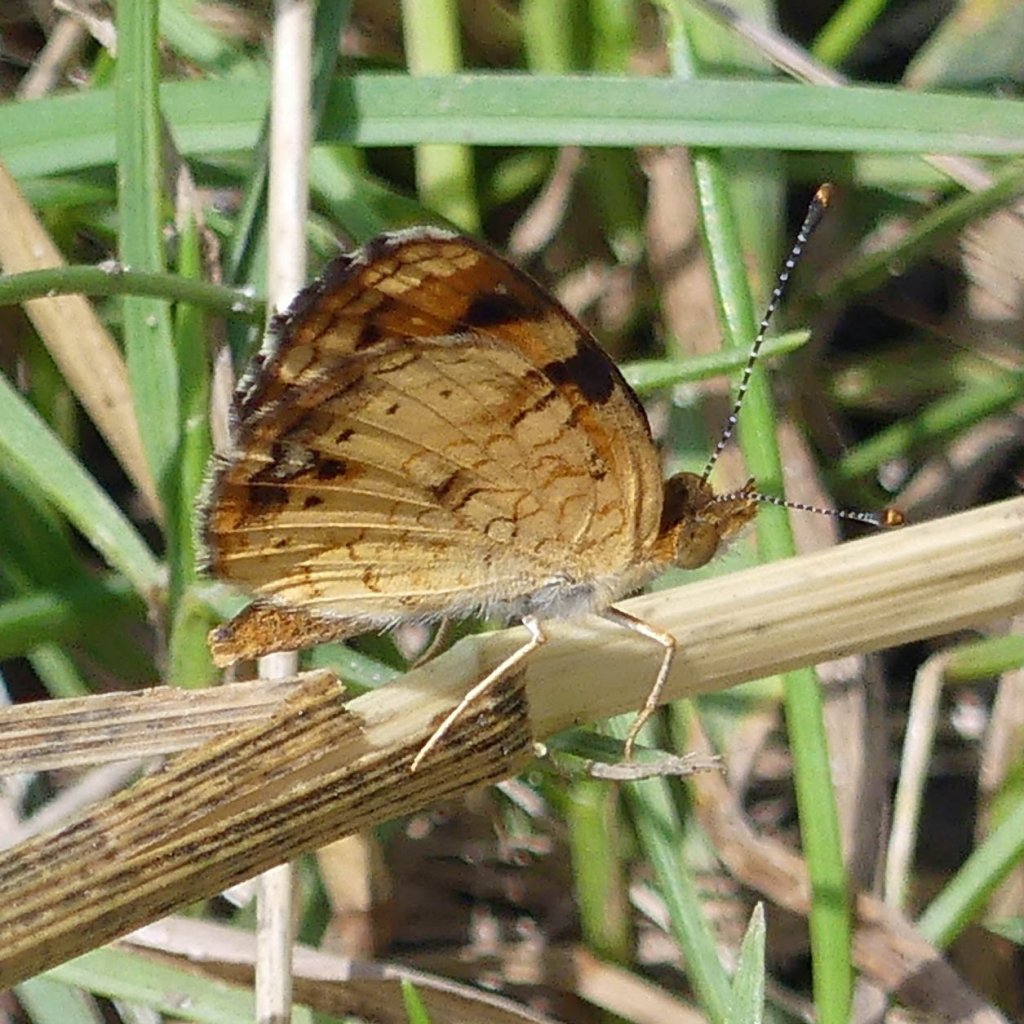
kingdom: Animalia
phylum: Arthropoda
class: Insecta
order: Lepidoptera
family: Nymphalidae
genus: Phyciodes
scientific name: Phyciodes tharos
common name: Northern Crescent
